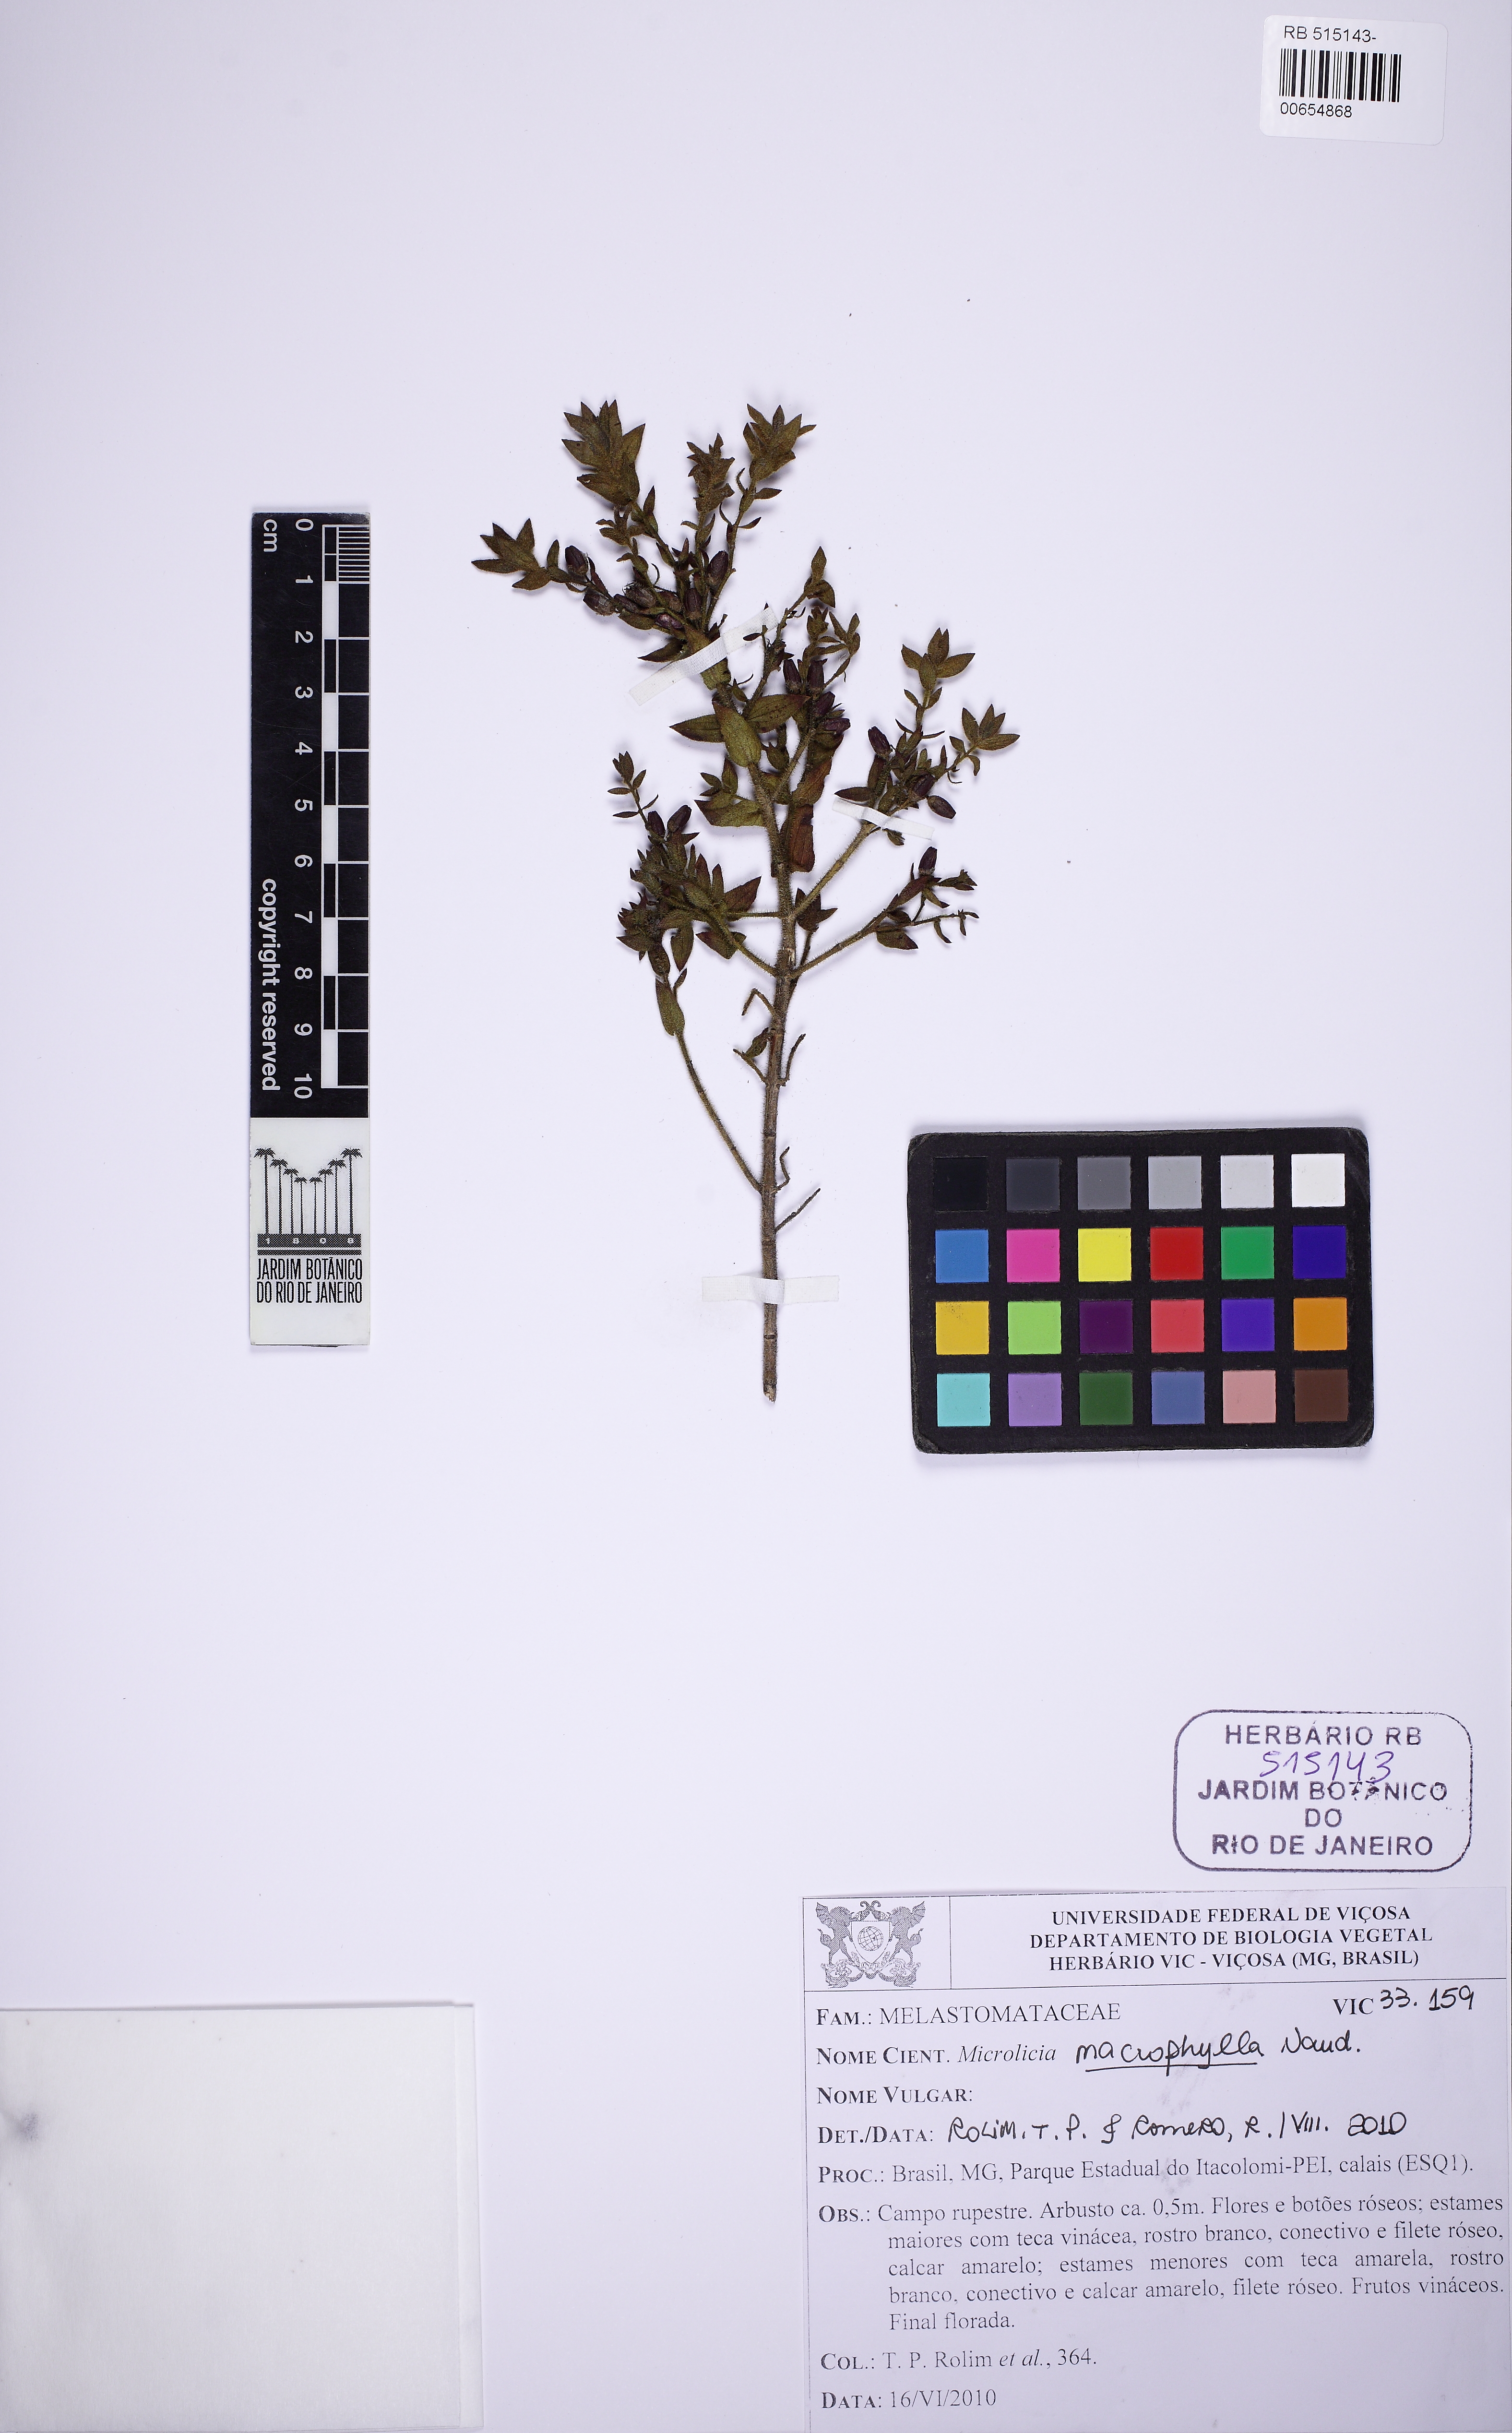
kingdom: Plantae
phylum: Tracheophyta
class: Magnoliopsida
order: Myrtales
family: Melastomataceae
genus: Microlicia
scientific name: Microlicia macrophylla
